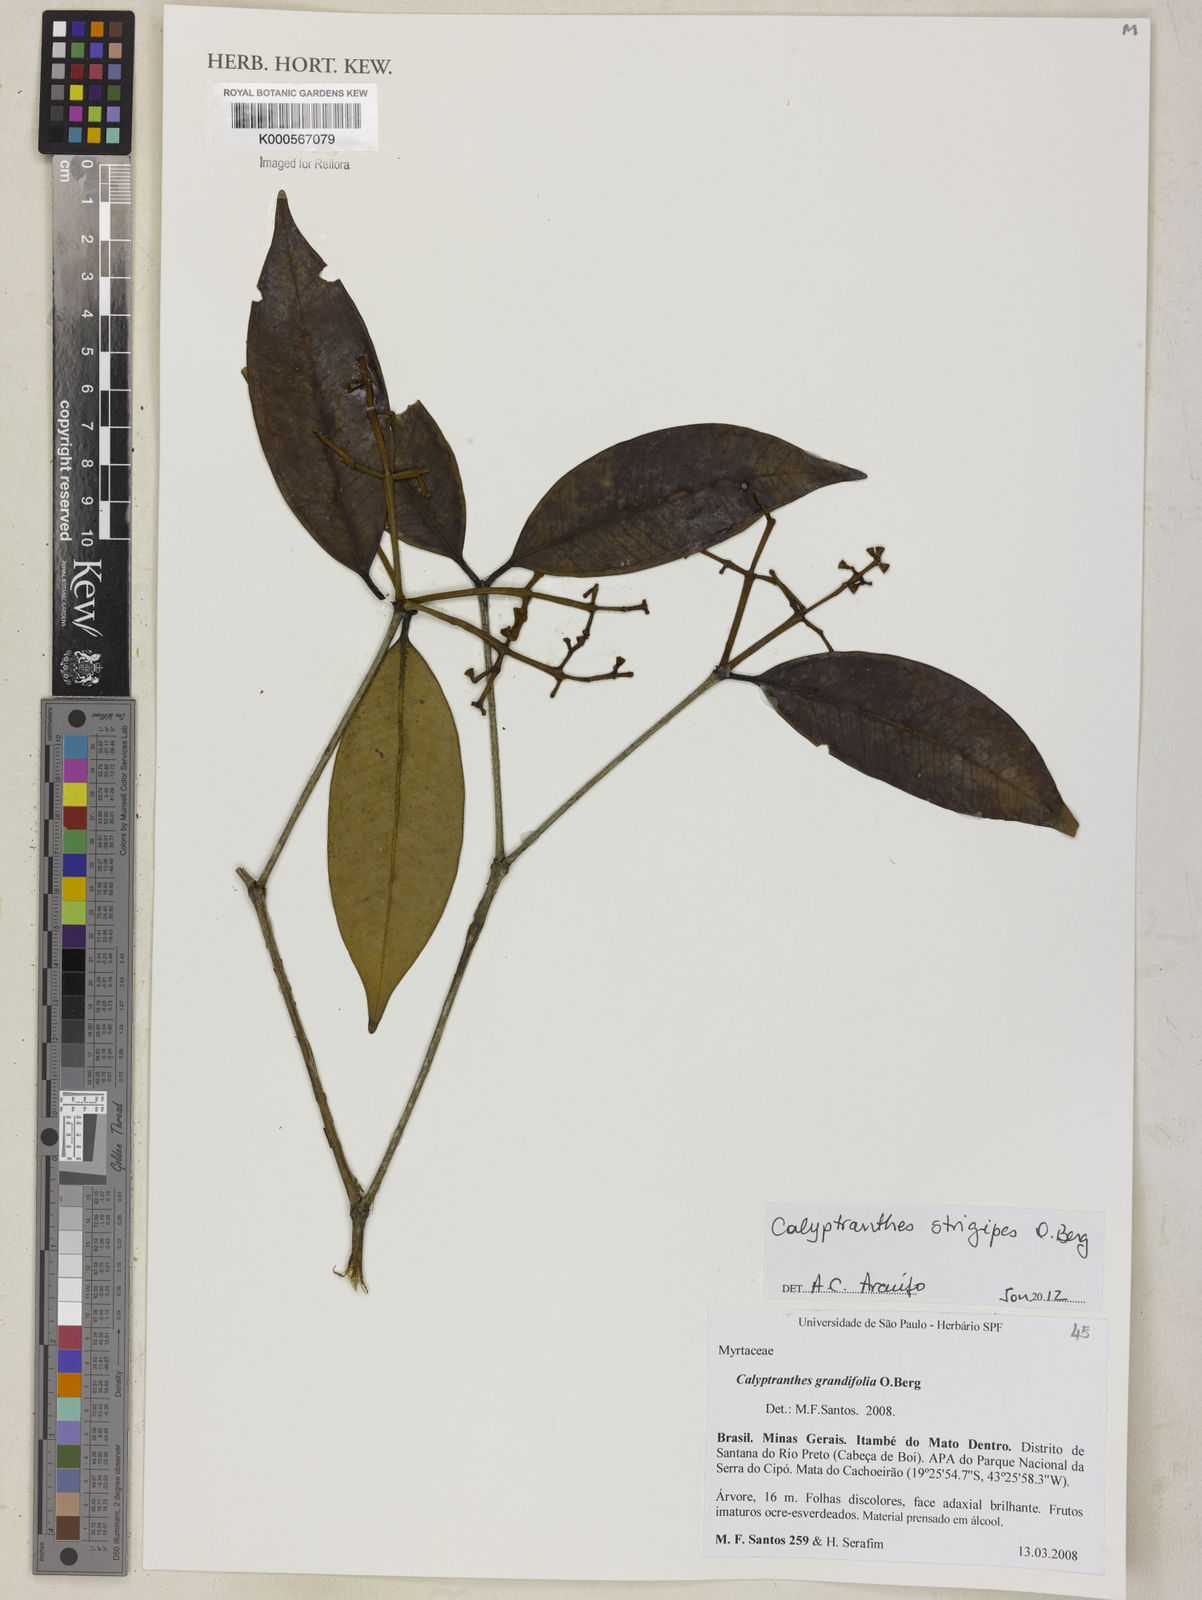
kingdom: Plantae
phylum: Tracheophyta
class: Magnoliopsida
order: Myrtales
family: Myrtaceae
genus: Myrcia
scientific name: Myrcia strigosa
